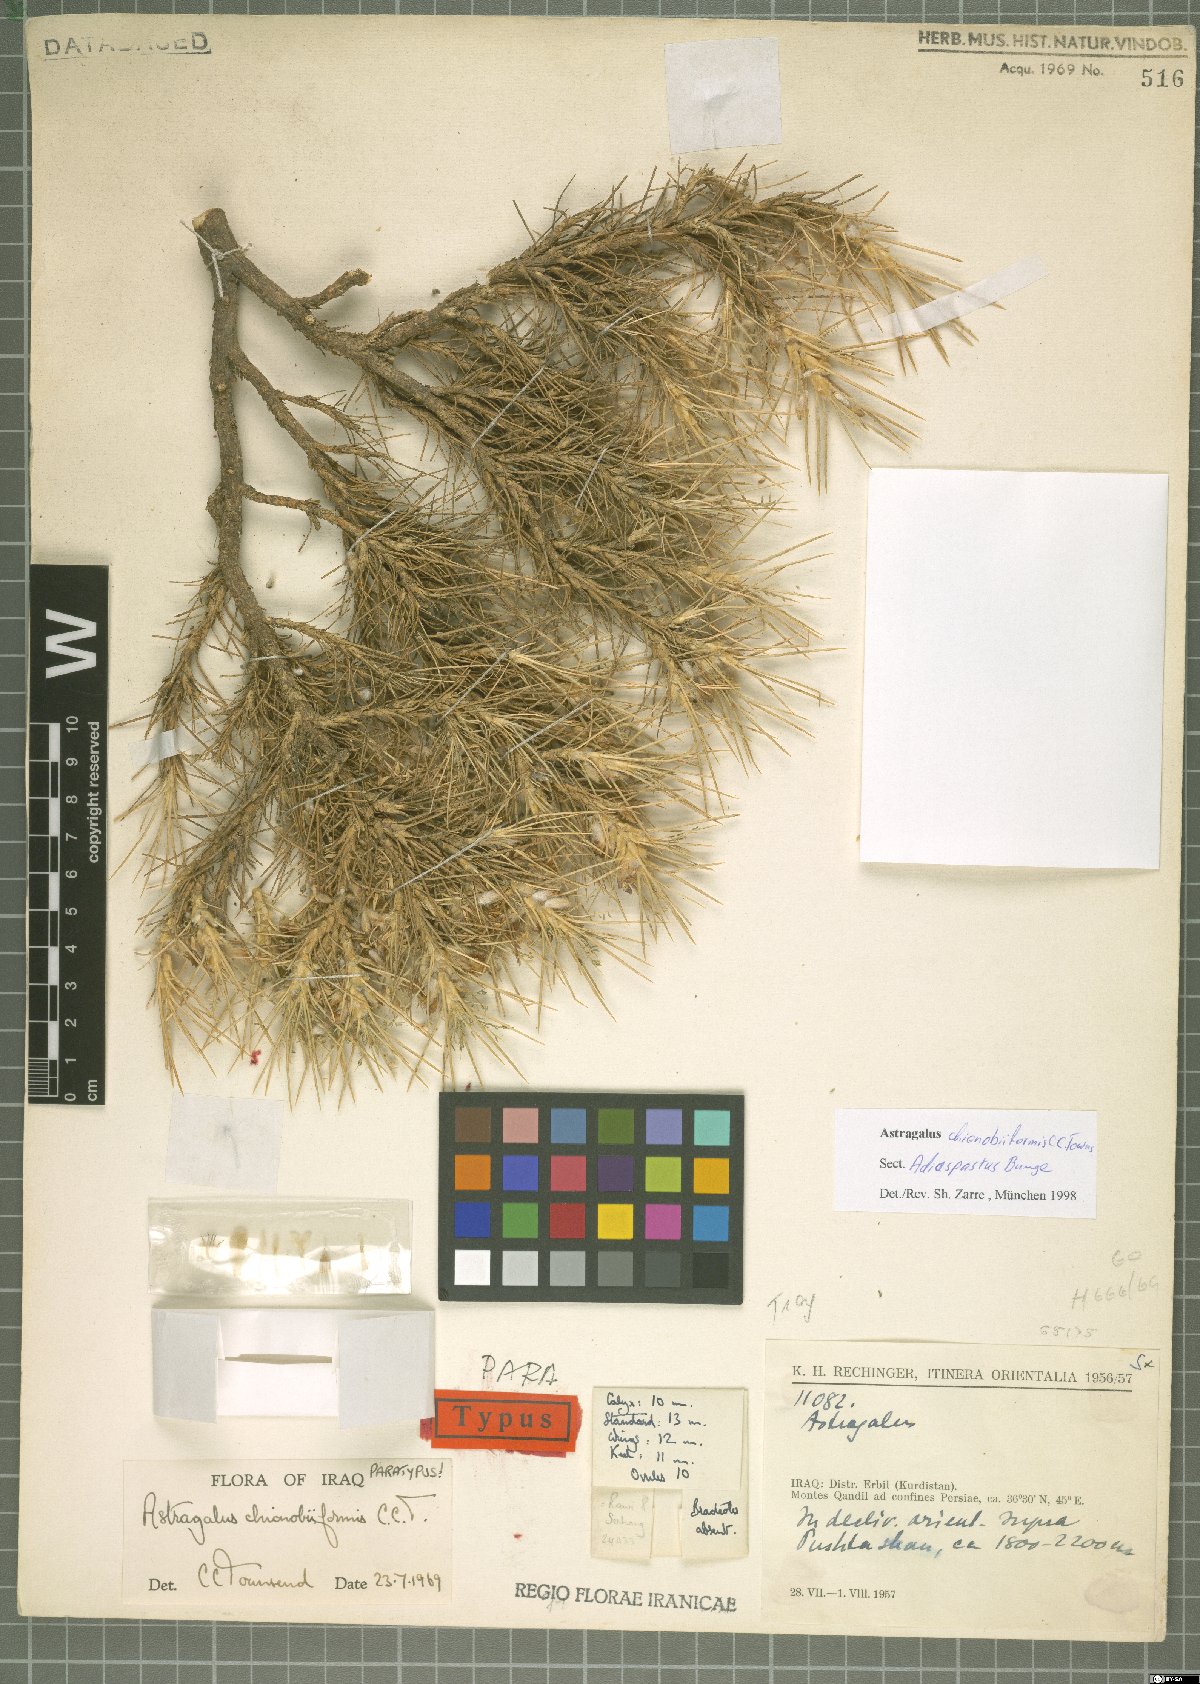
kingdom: Plantae
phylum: Tracheophyta
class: Magnoliopsida
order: Fabales
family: Fabaceae
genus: Astragalus
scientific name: Astragalus chionobiiformis
